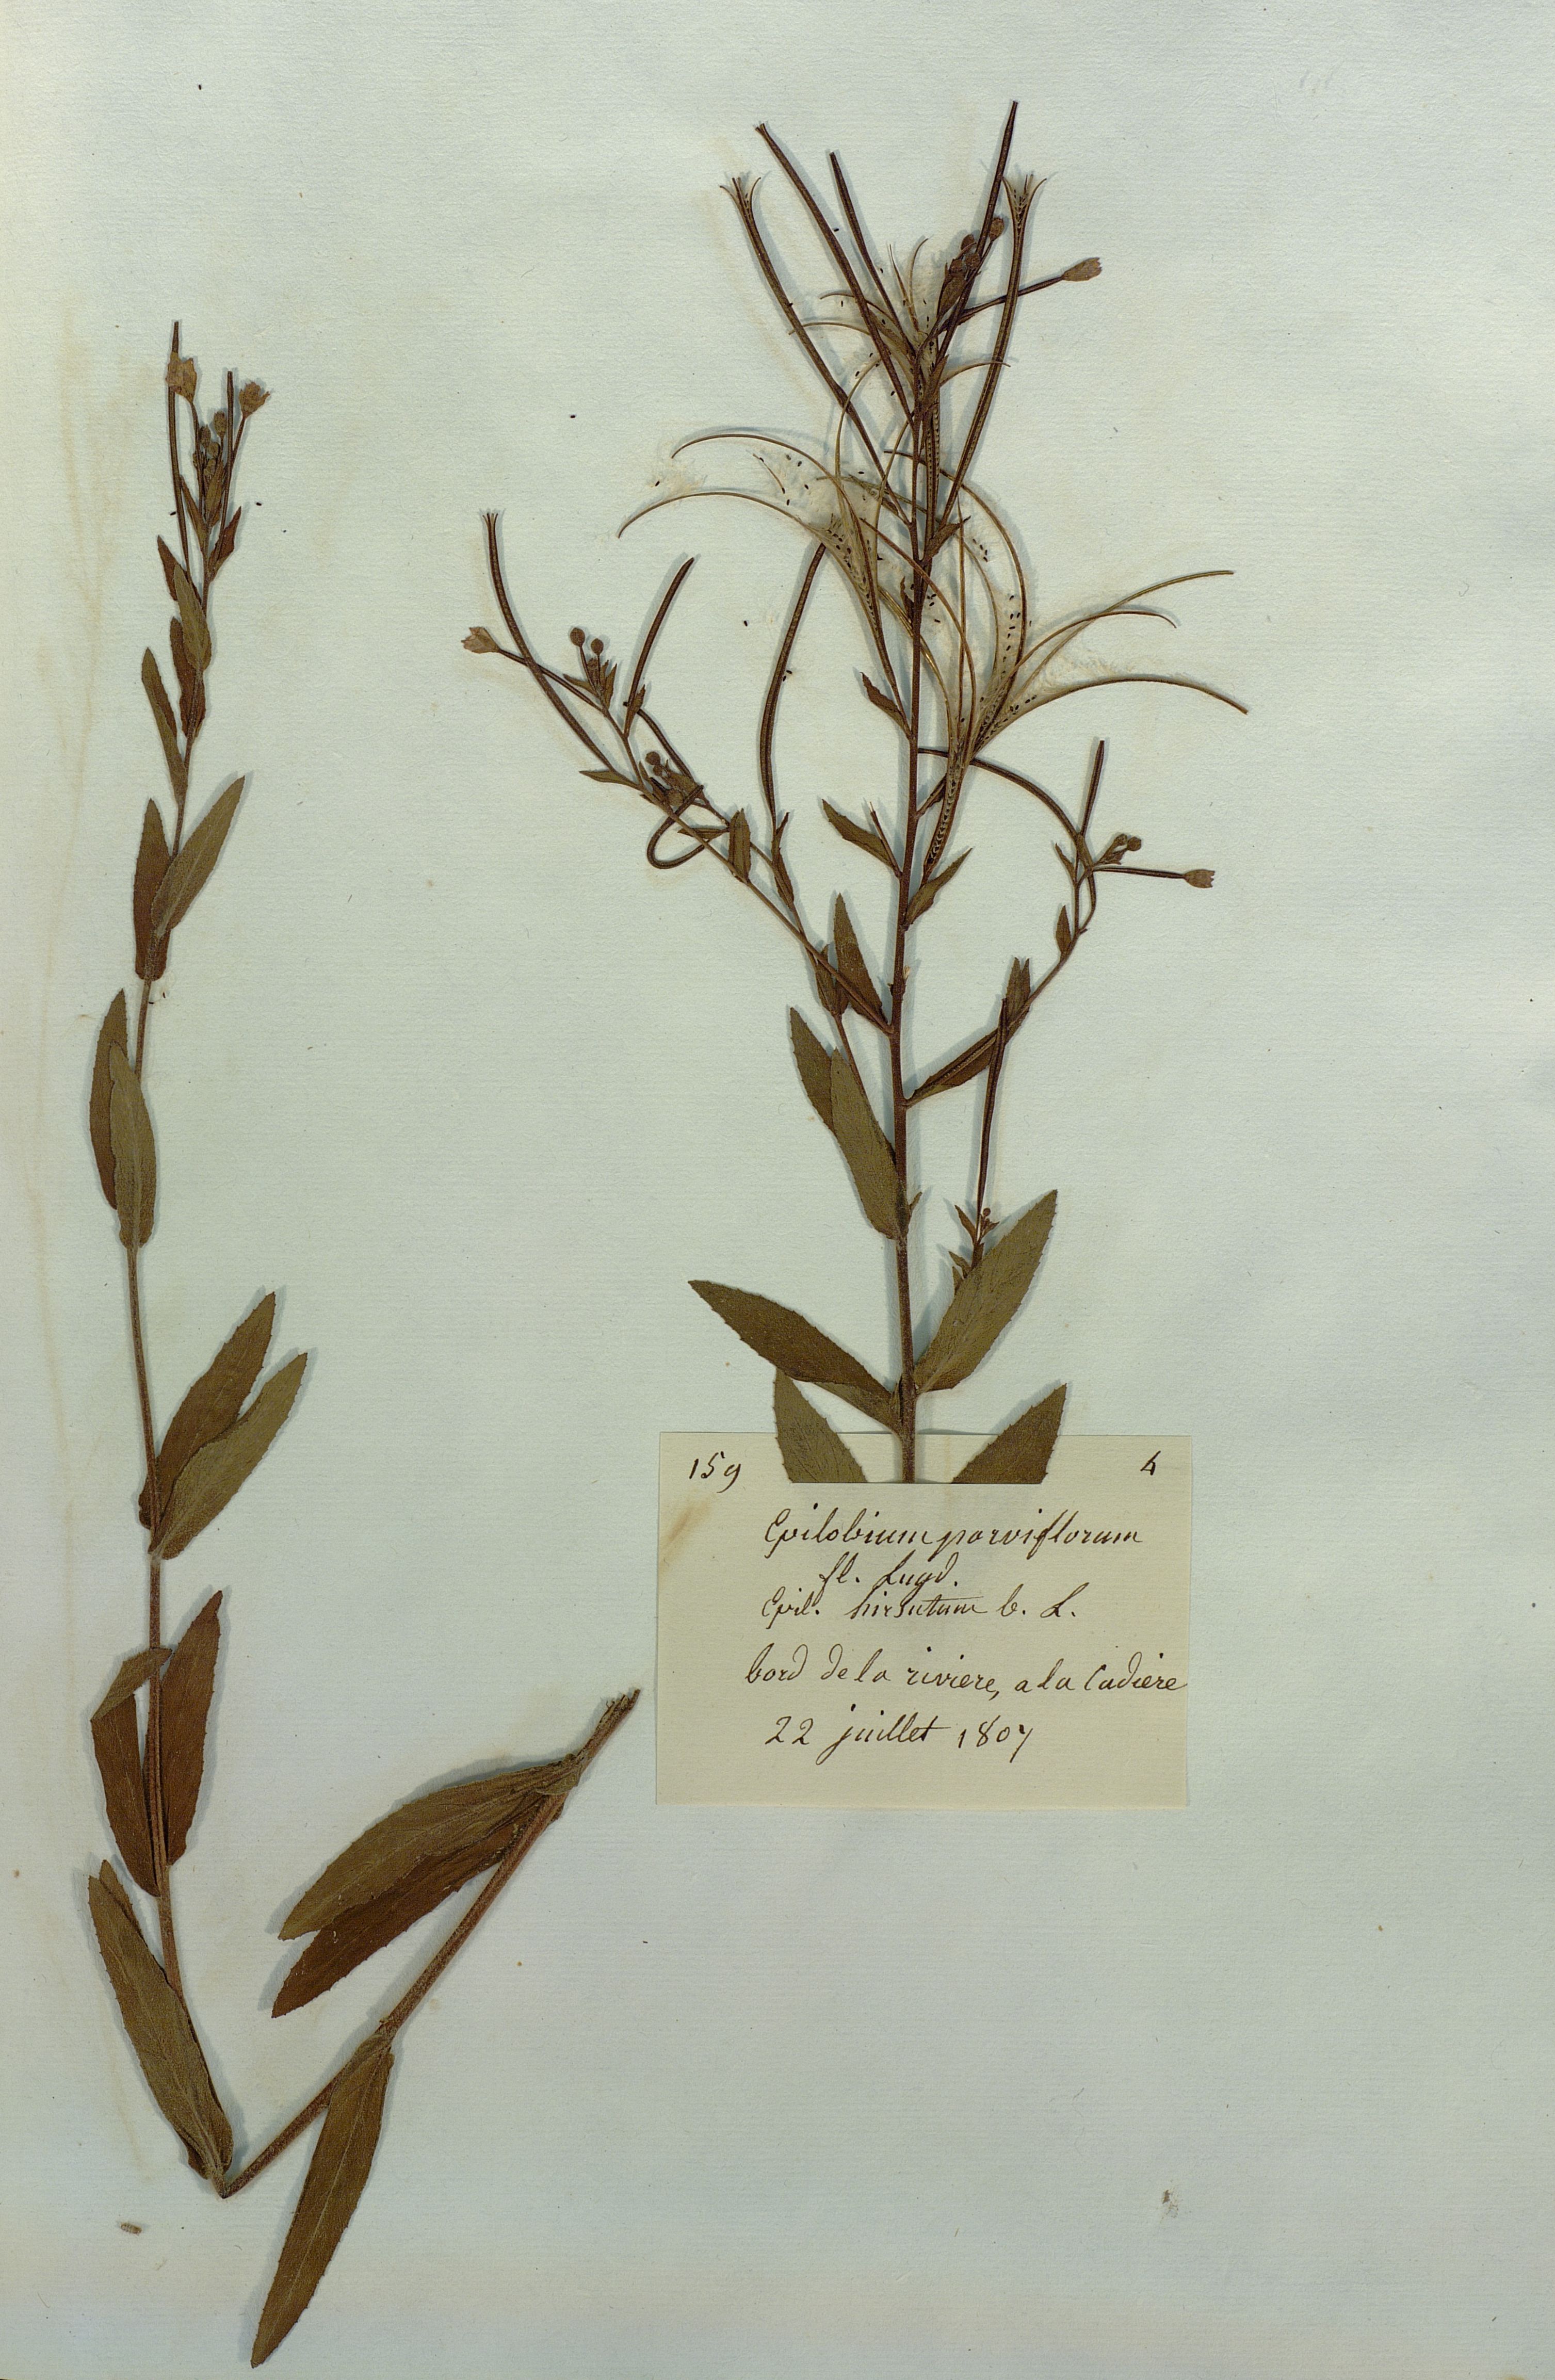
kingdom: Plantae
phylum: Tracheophyta
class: Magnoliopsida
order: Myrtales
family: Onagraceae
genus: Epilobium
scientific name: Epilobium parviflorum
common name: Hoary willowherb
